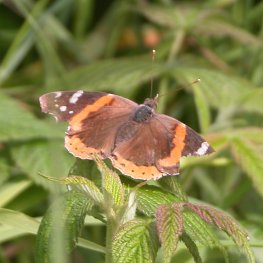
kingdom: Animalia
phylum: Arthropoda
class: Insecta
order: Lepidoptera
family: Nymphalidae
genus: Vanessa
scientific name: Vanessa atalanta
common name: Red Admiral
